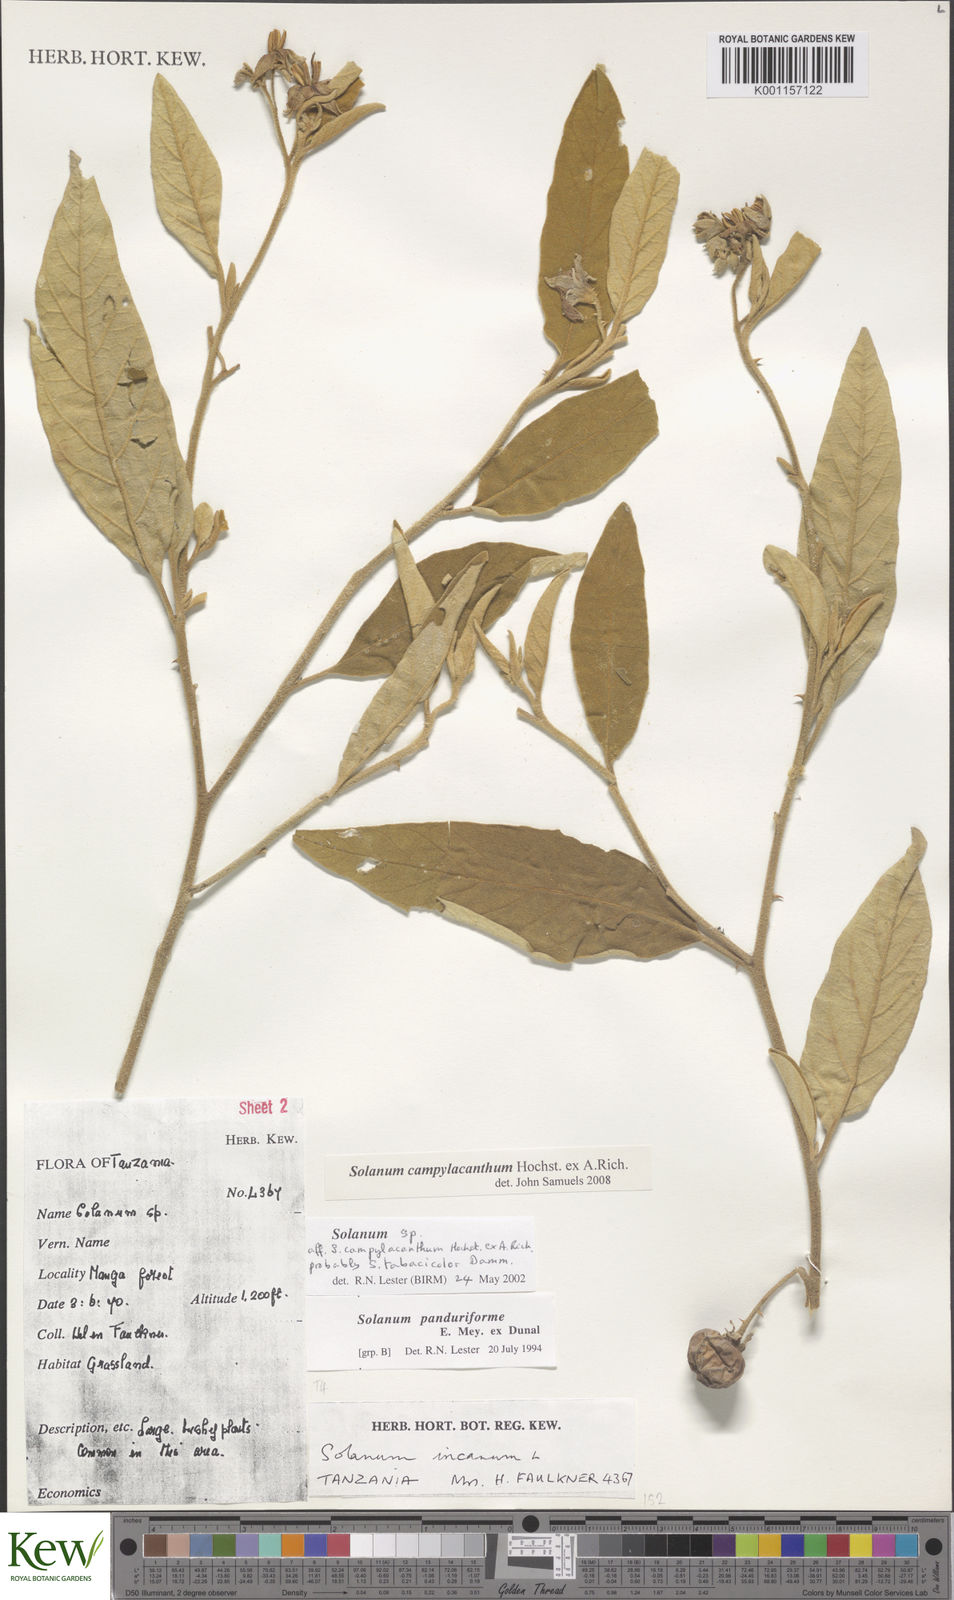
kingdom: Plantae
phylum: Tracheophyta
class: Magnoliopsida
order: Solanales
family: Solanaceae
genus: Solanum
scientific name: Solanum campylacanthum
